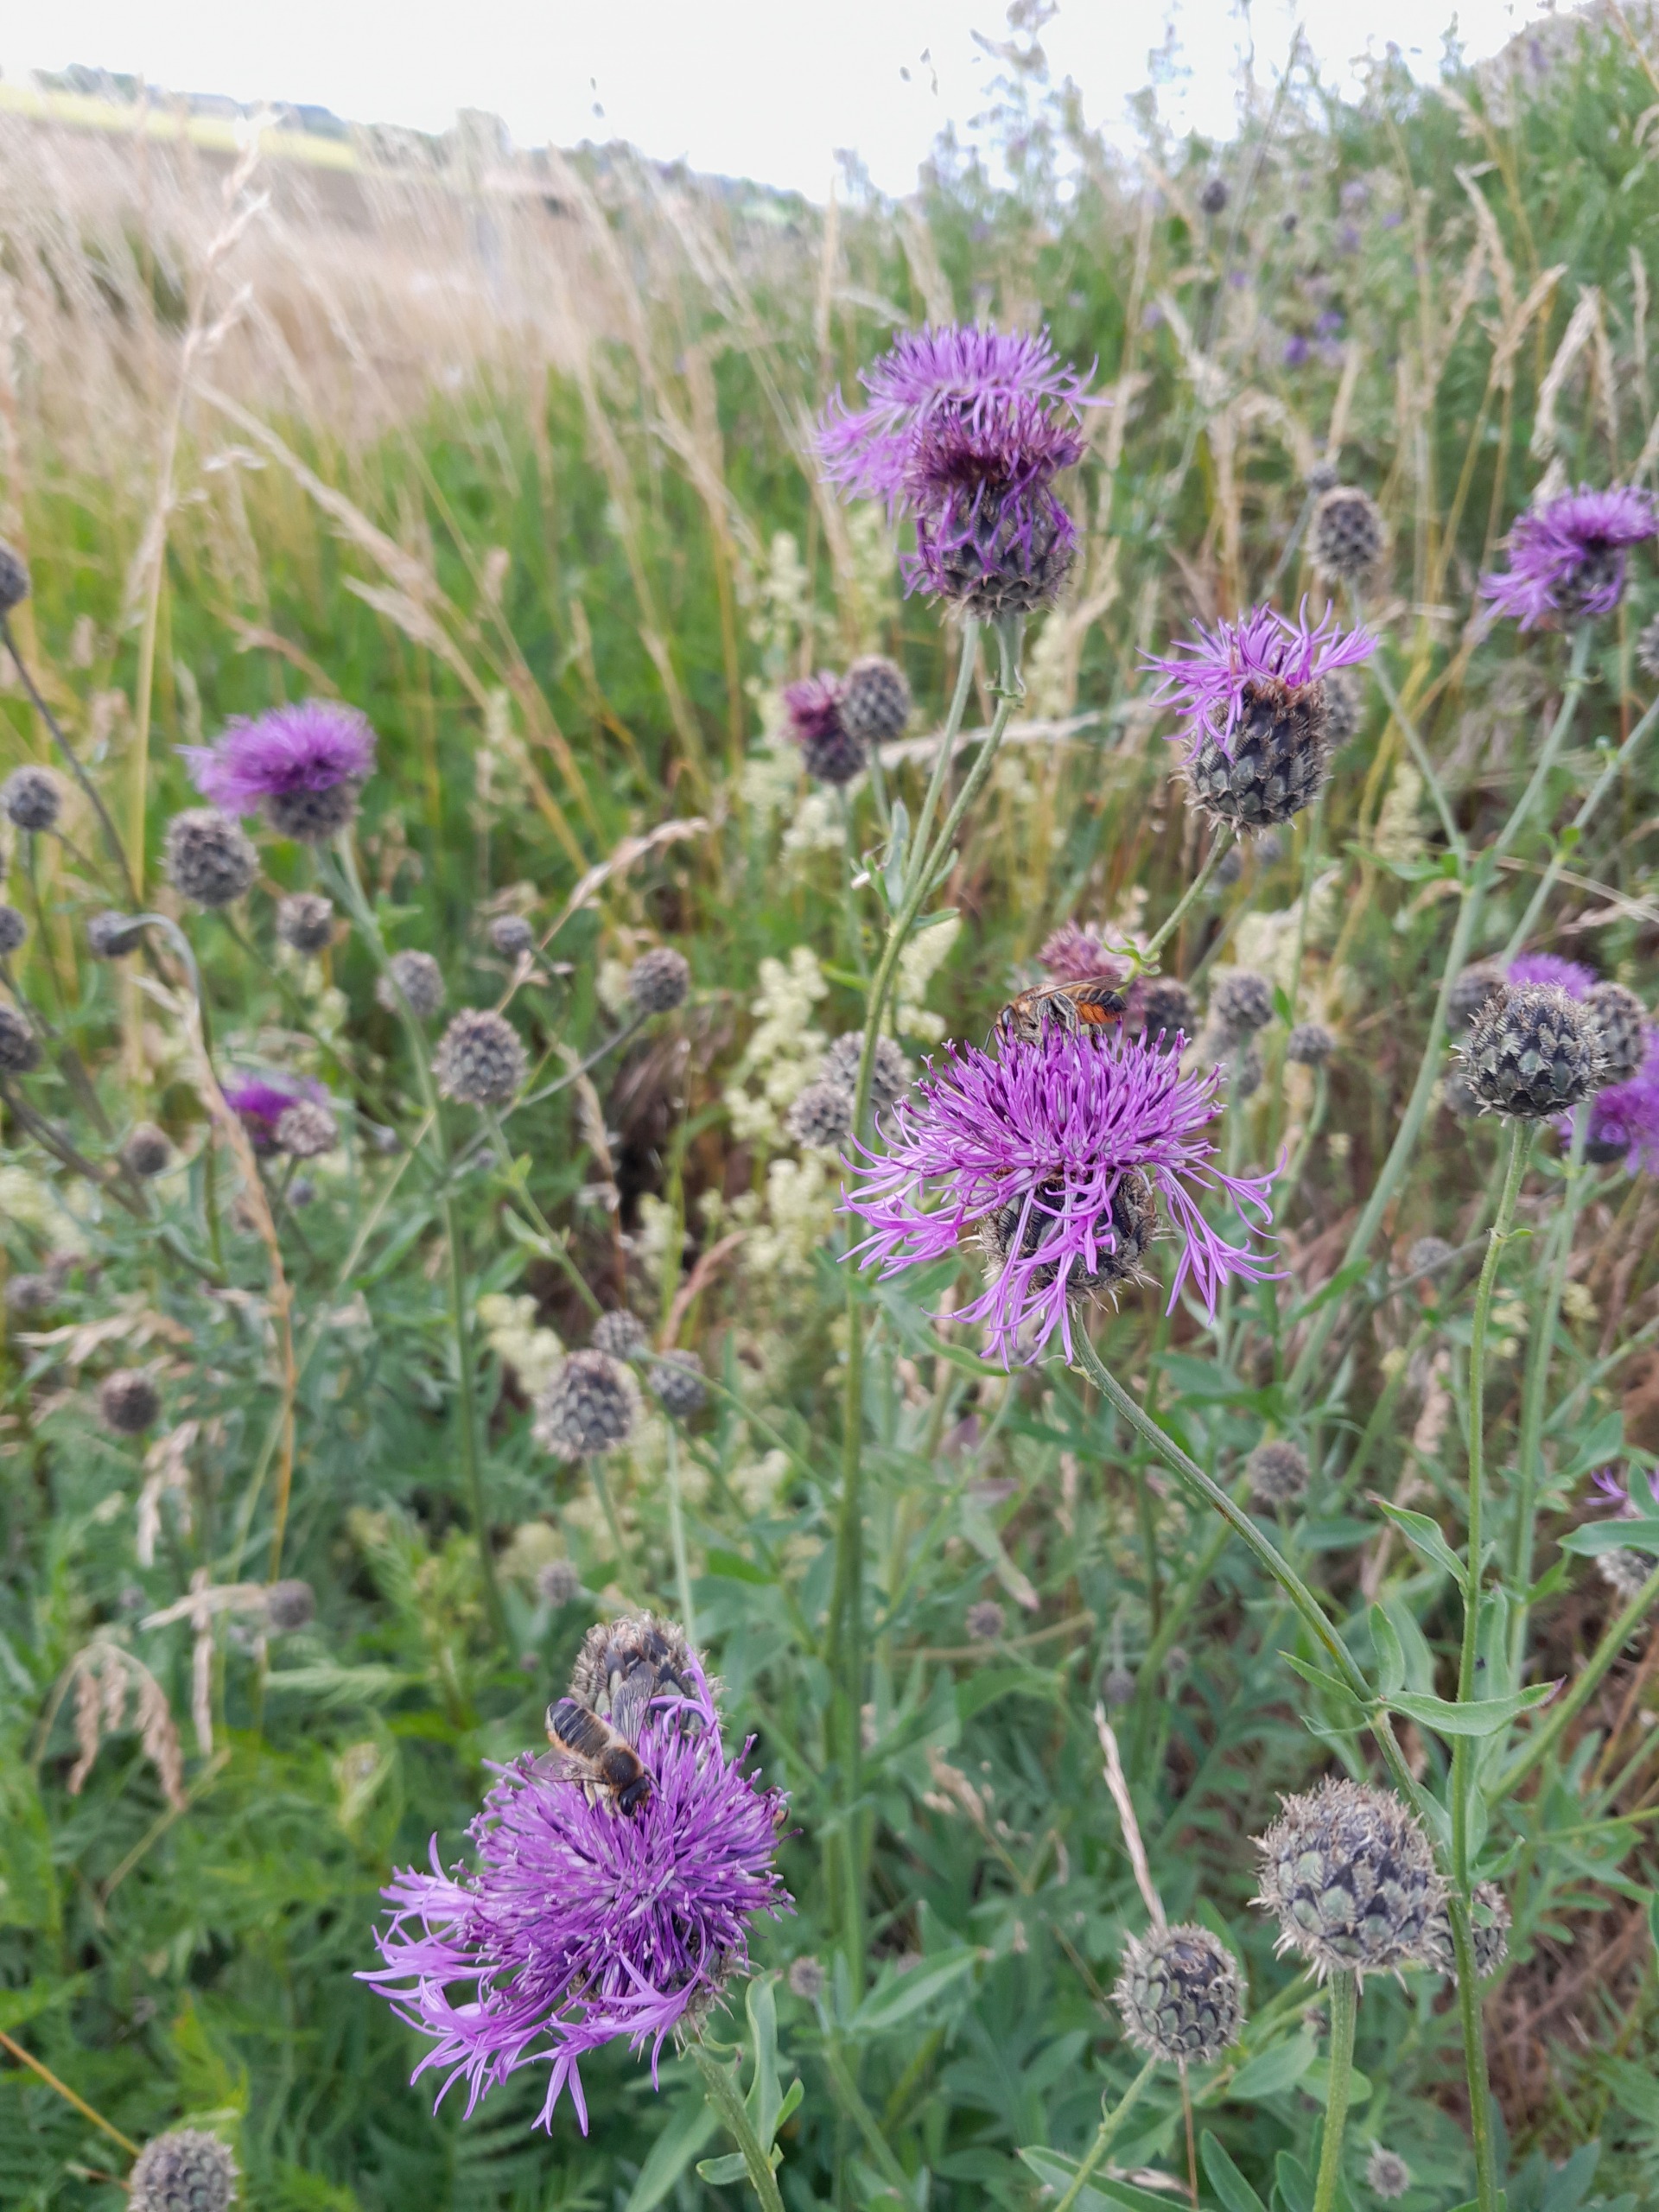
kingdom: Plantae
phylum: Tracheophyta
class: Magnoliopsida
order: Asterales
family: Asteraceae
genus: Centaurea
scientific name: Centaurea scabiosa
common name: Stor knopurt
